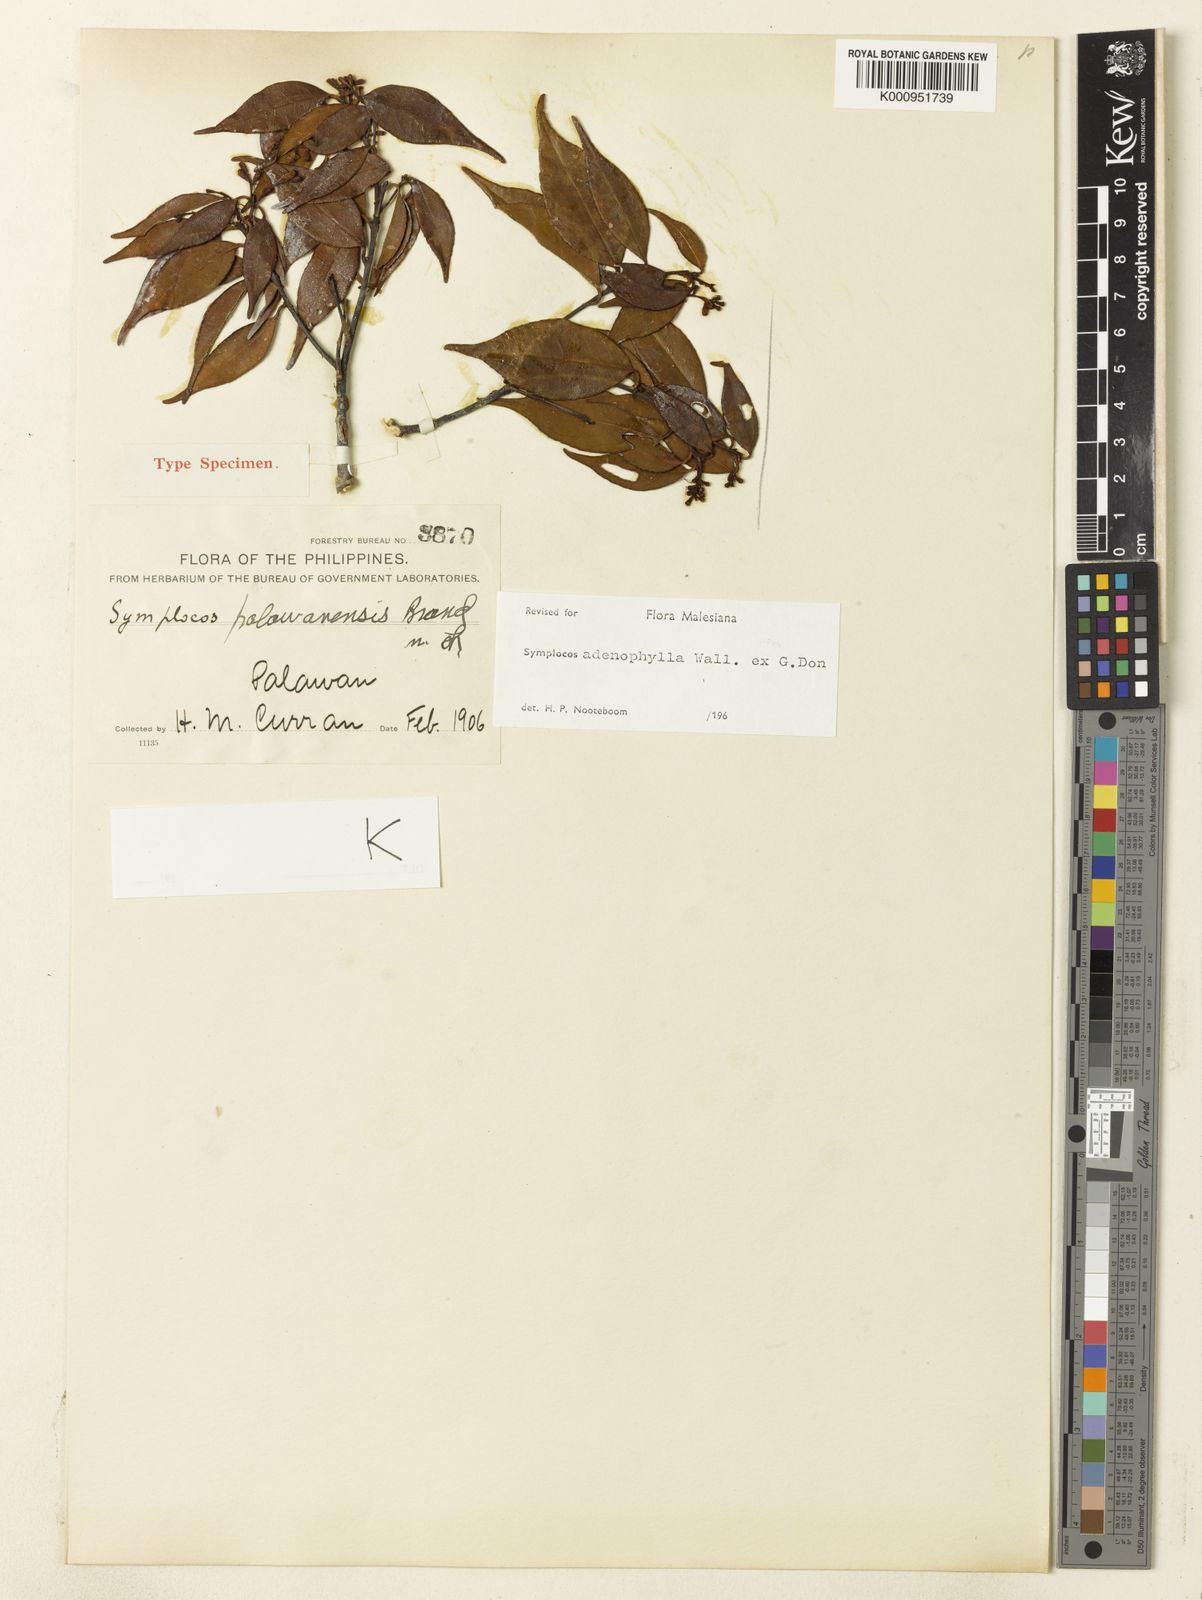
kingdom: Plantae
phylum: Tracheophyta
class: Magnoliopsida
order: Ericales
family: Symplocaceae
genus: Symplocos
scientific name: Symplocos adenophylla
